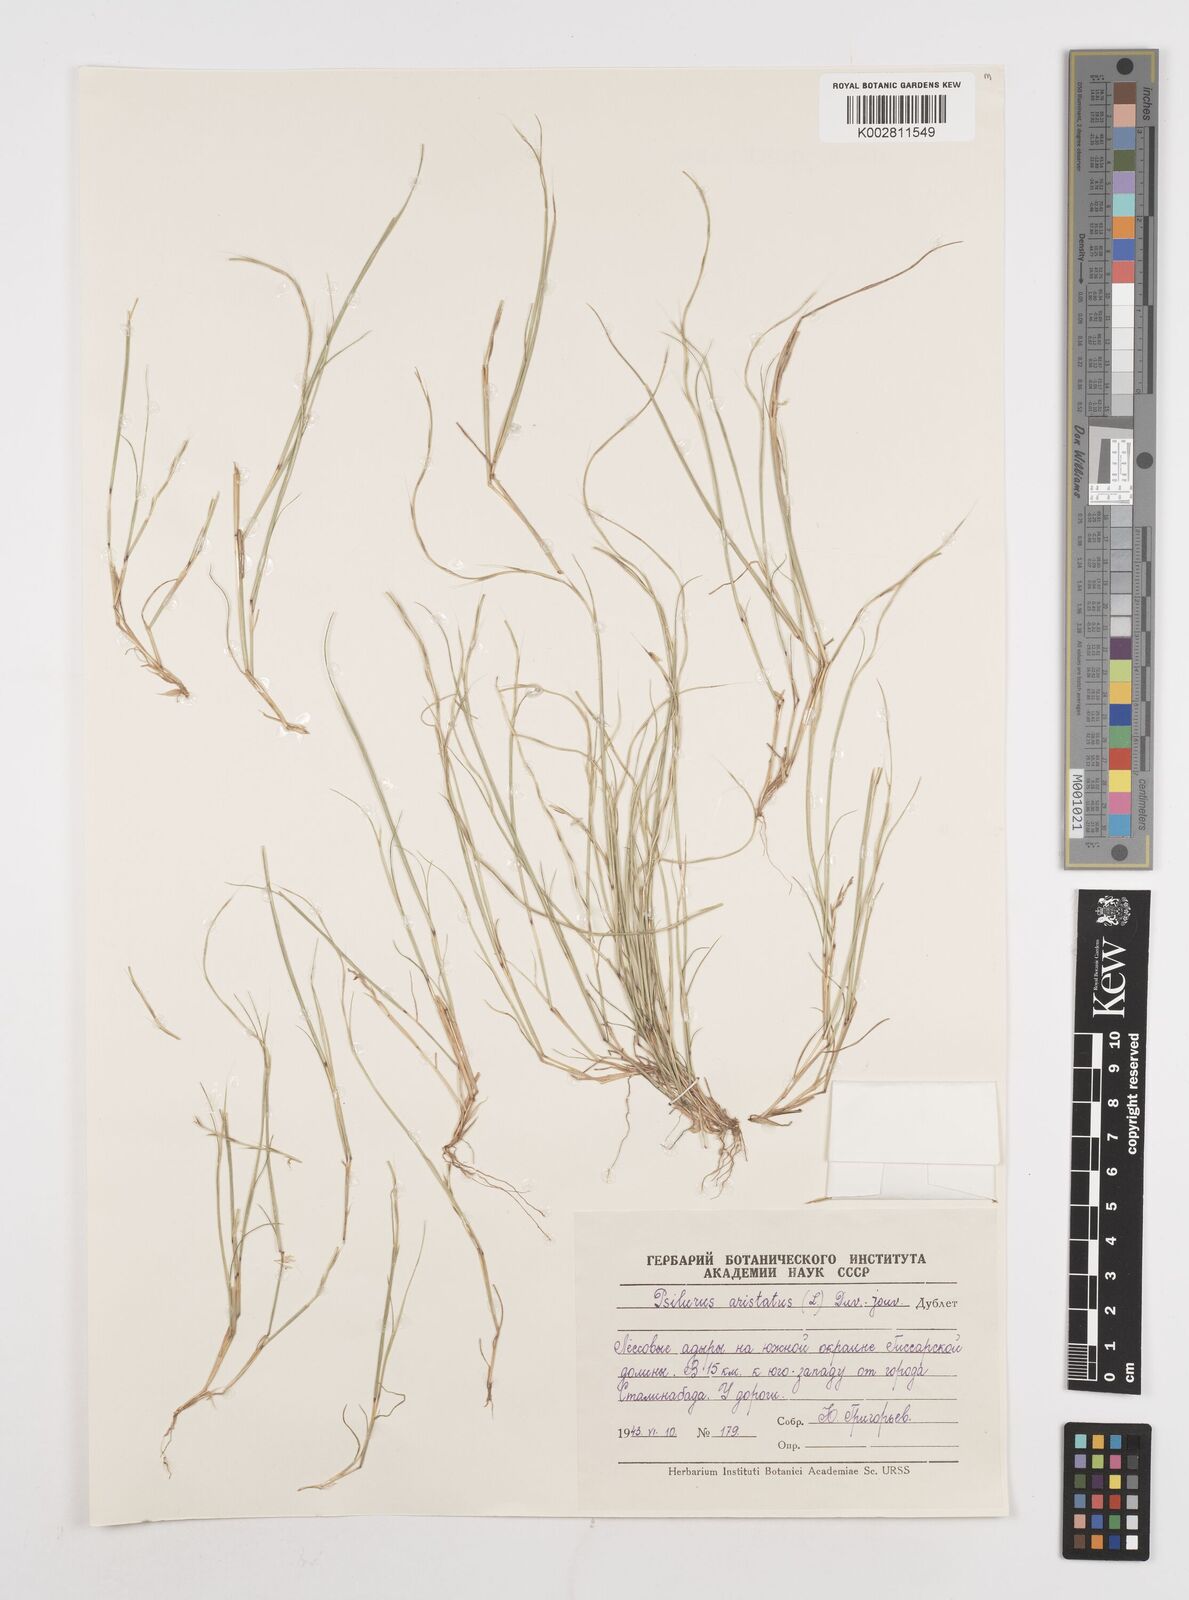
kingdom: Plantae
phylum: Tracheophyta
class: Liliopsida
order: Poales
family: Poaceae
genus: Festuca
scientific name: Festuca incurva
